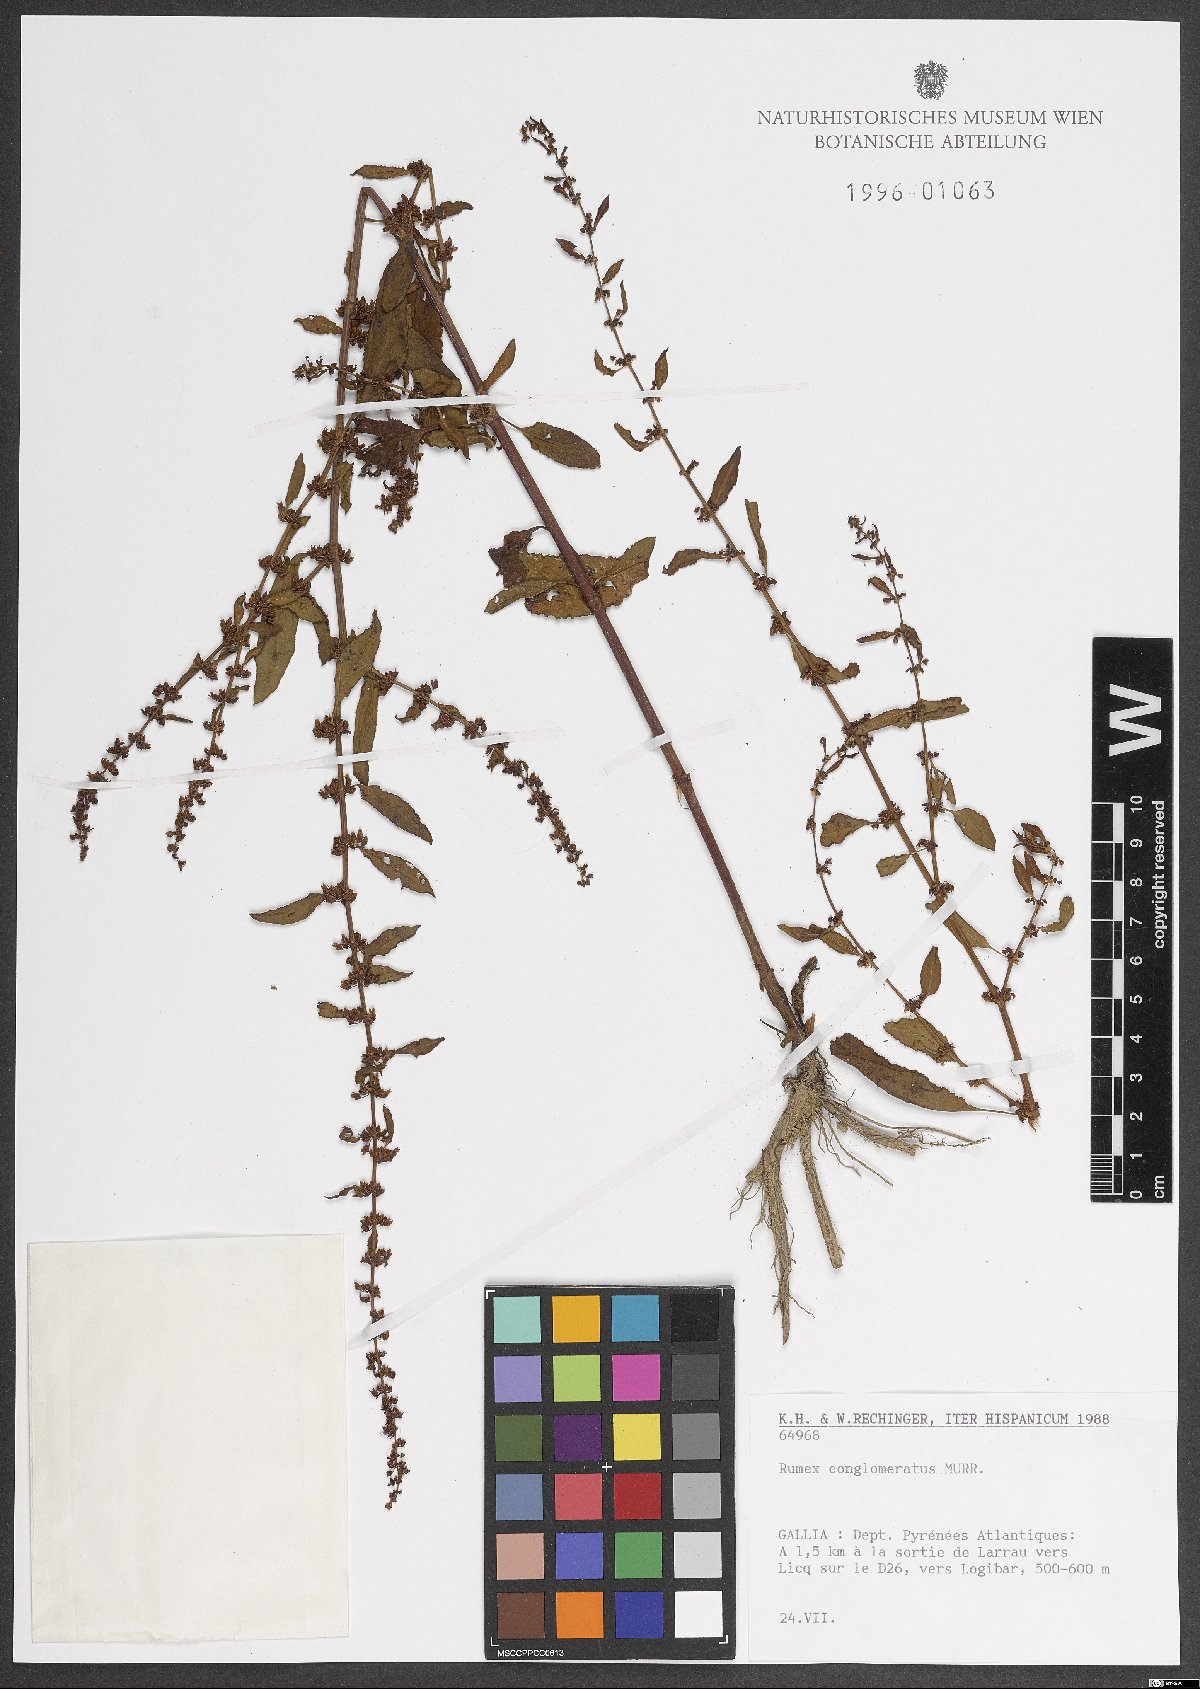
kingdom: Plantae
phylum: Tracheophyta
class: Magnoliopsida
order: Caryophyllales
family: Polygonaceae
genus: Rumex
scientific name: Rumex conglomeratus
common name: Clustered dock
